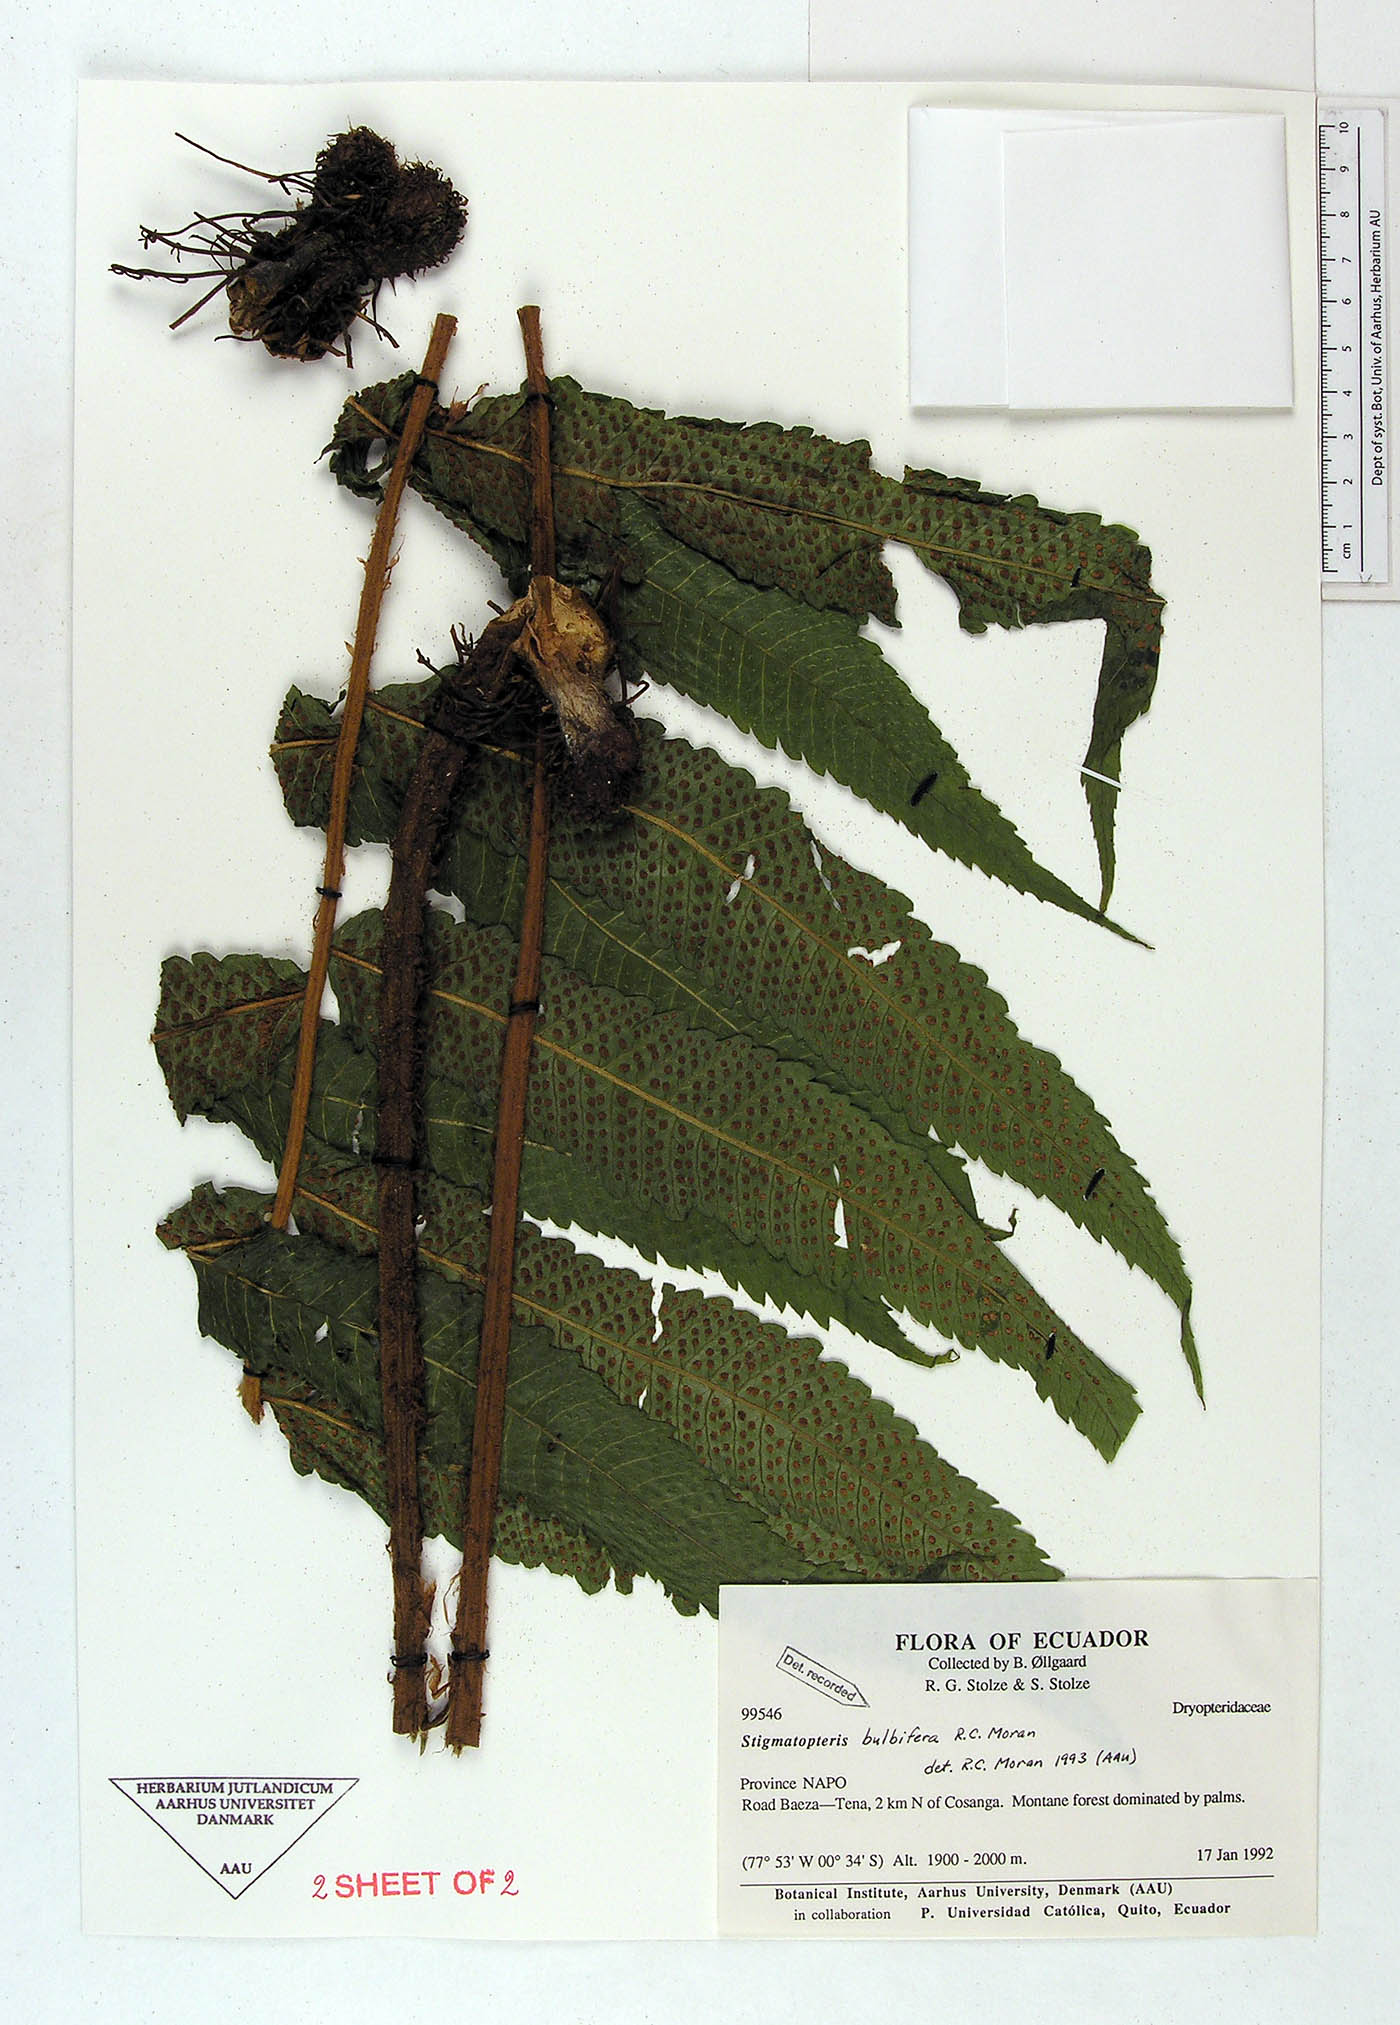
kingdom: Plantae
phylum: Tracheophyta
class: Polypodiopsida
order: Polypodiales
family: Dryopteridaceae
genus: Stigmatopteris
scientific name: Stigmatopteris bulbifera
